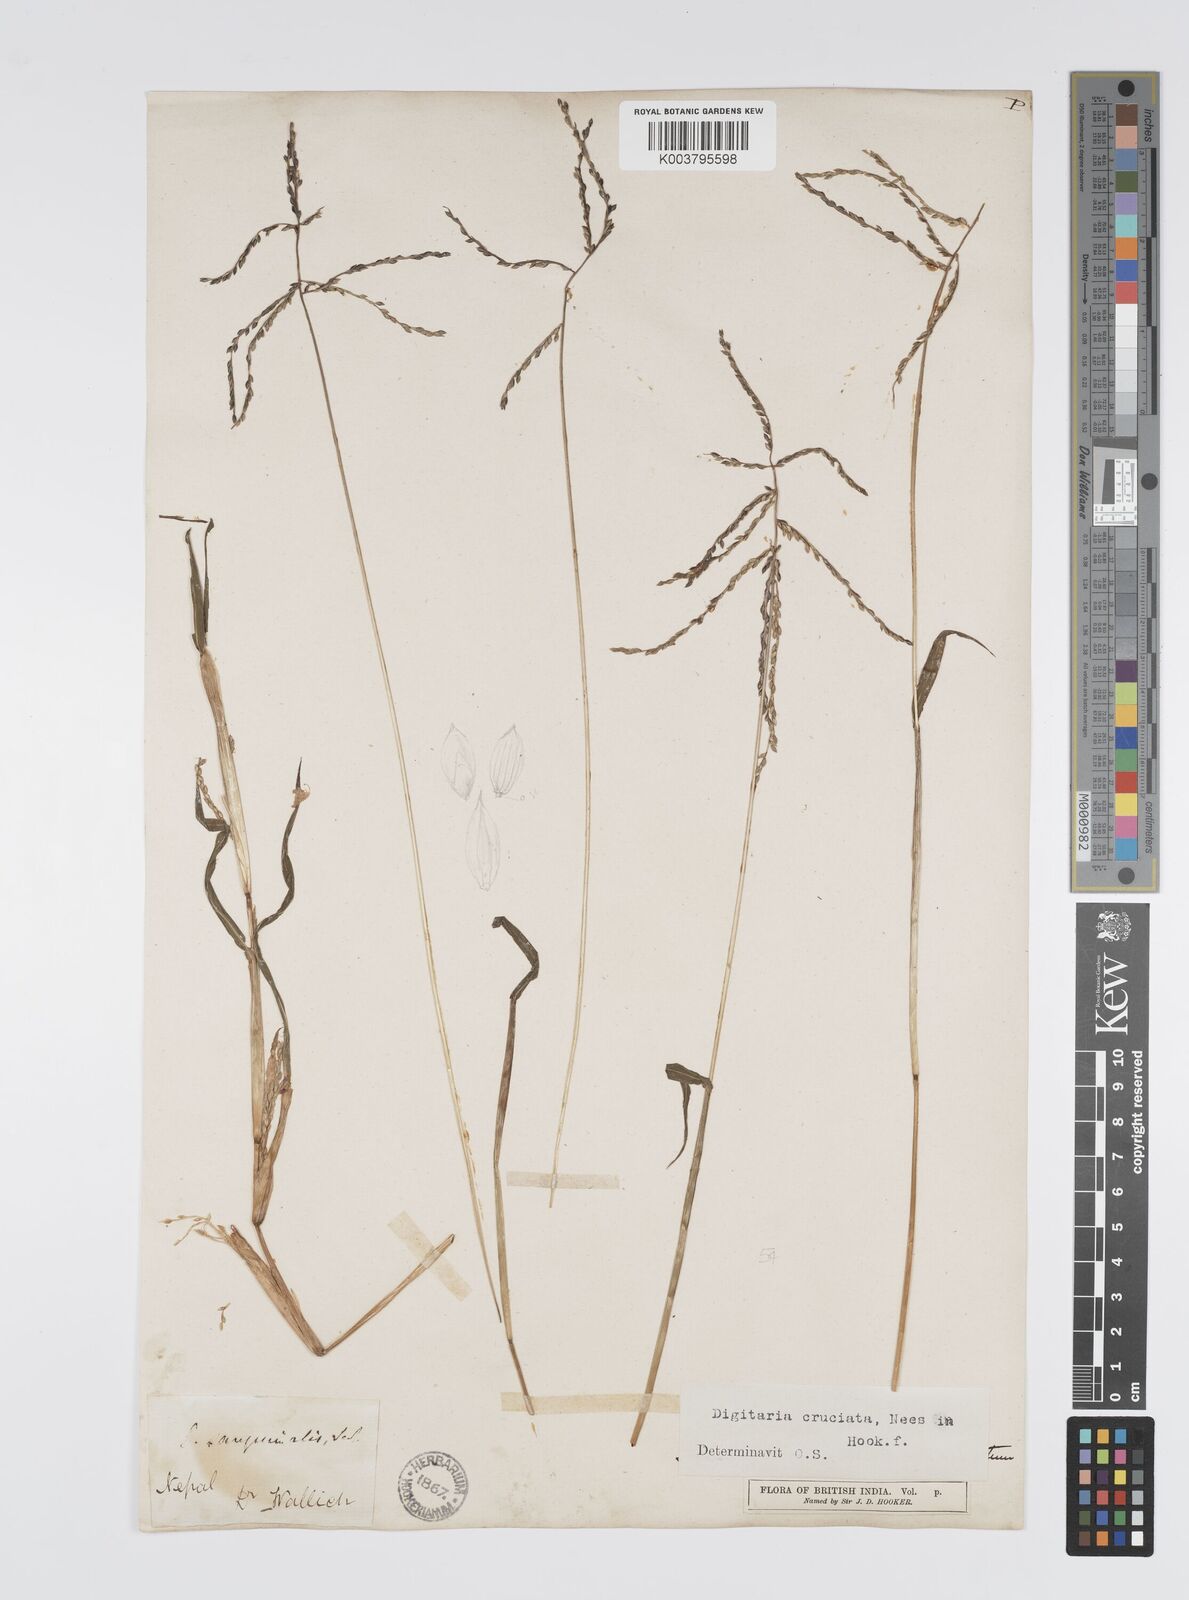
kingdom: Plantae
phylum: Tracheophyta
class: Liliopsida
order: Poales
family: Poaceae
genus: Digitaria
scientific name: Digitaria sanguinalis
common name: Hairy crabgrass
